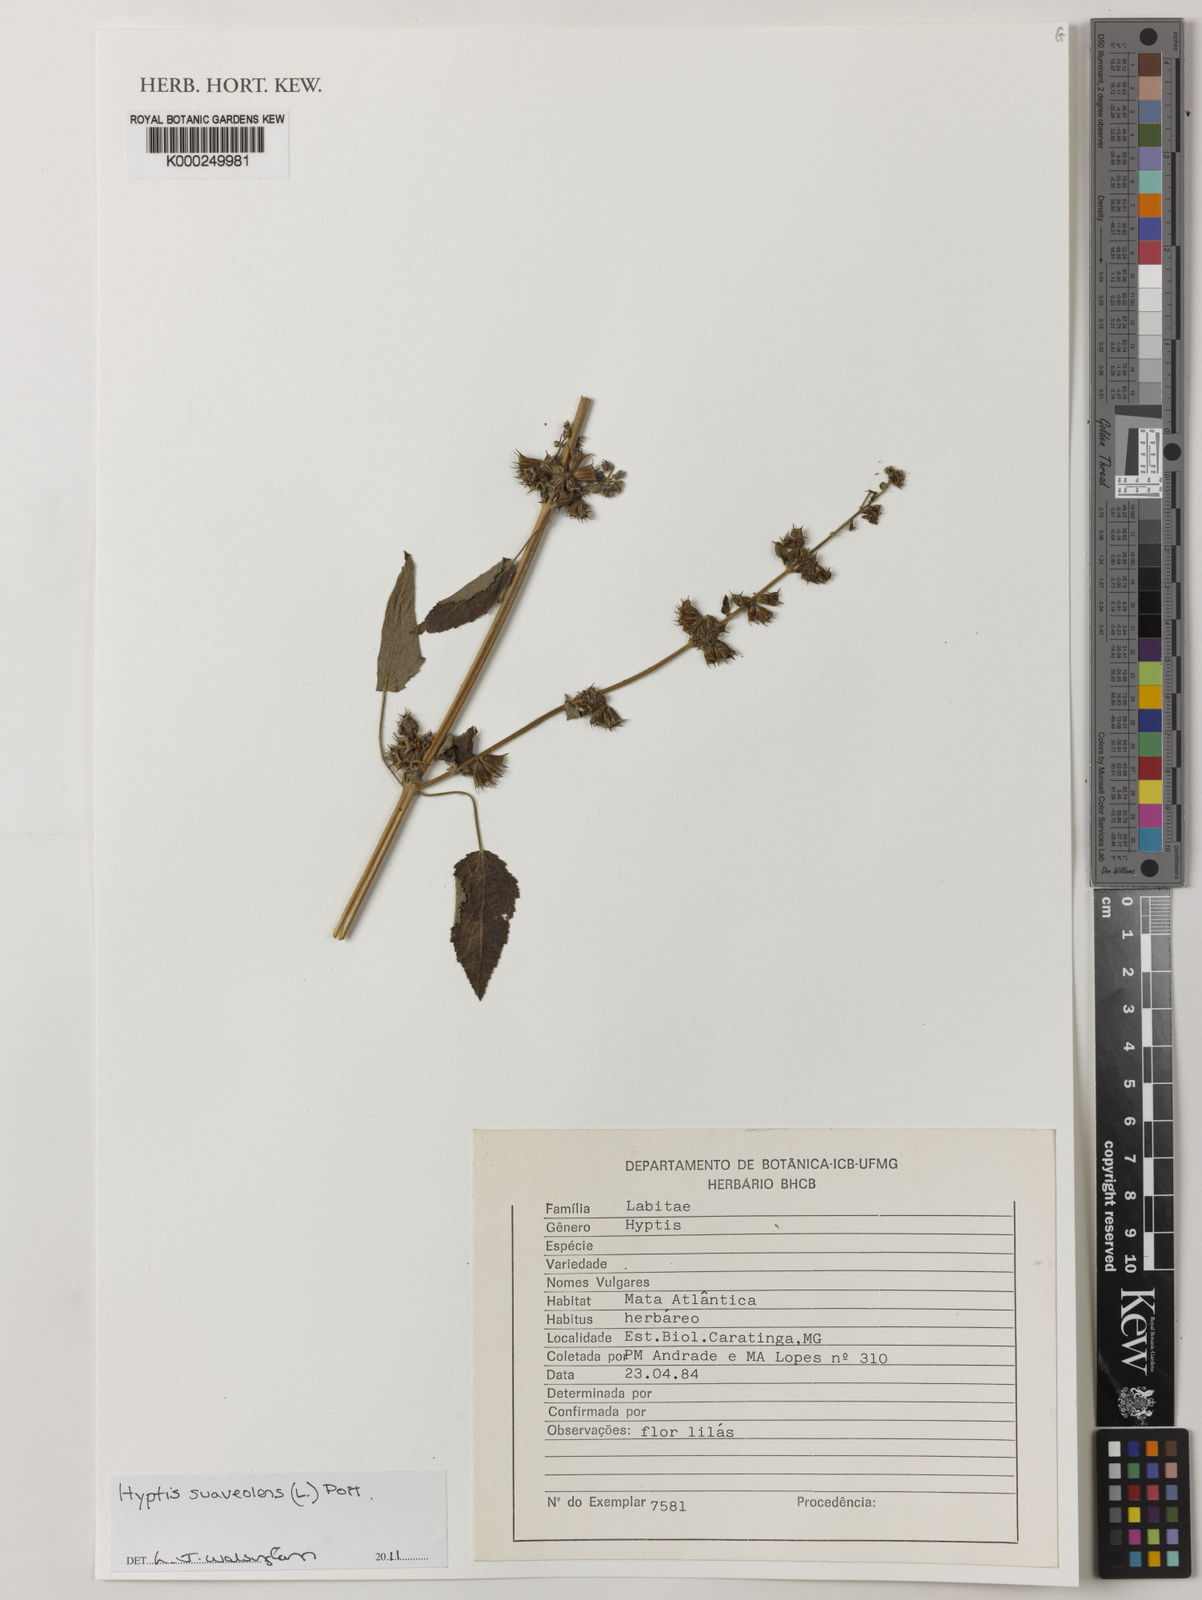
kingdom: Plantae
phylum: Tracheophyta
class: Magnoliopsida
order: Lamiales
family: Lamiaceae
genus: Mesosphaerum
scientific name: Mesosphaerum suaveolens
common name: Pignut
